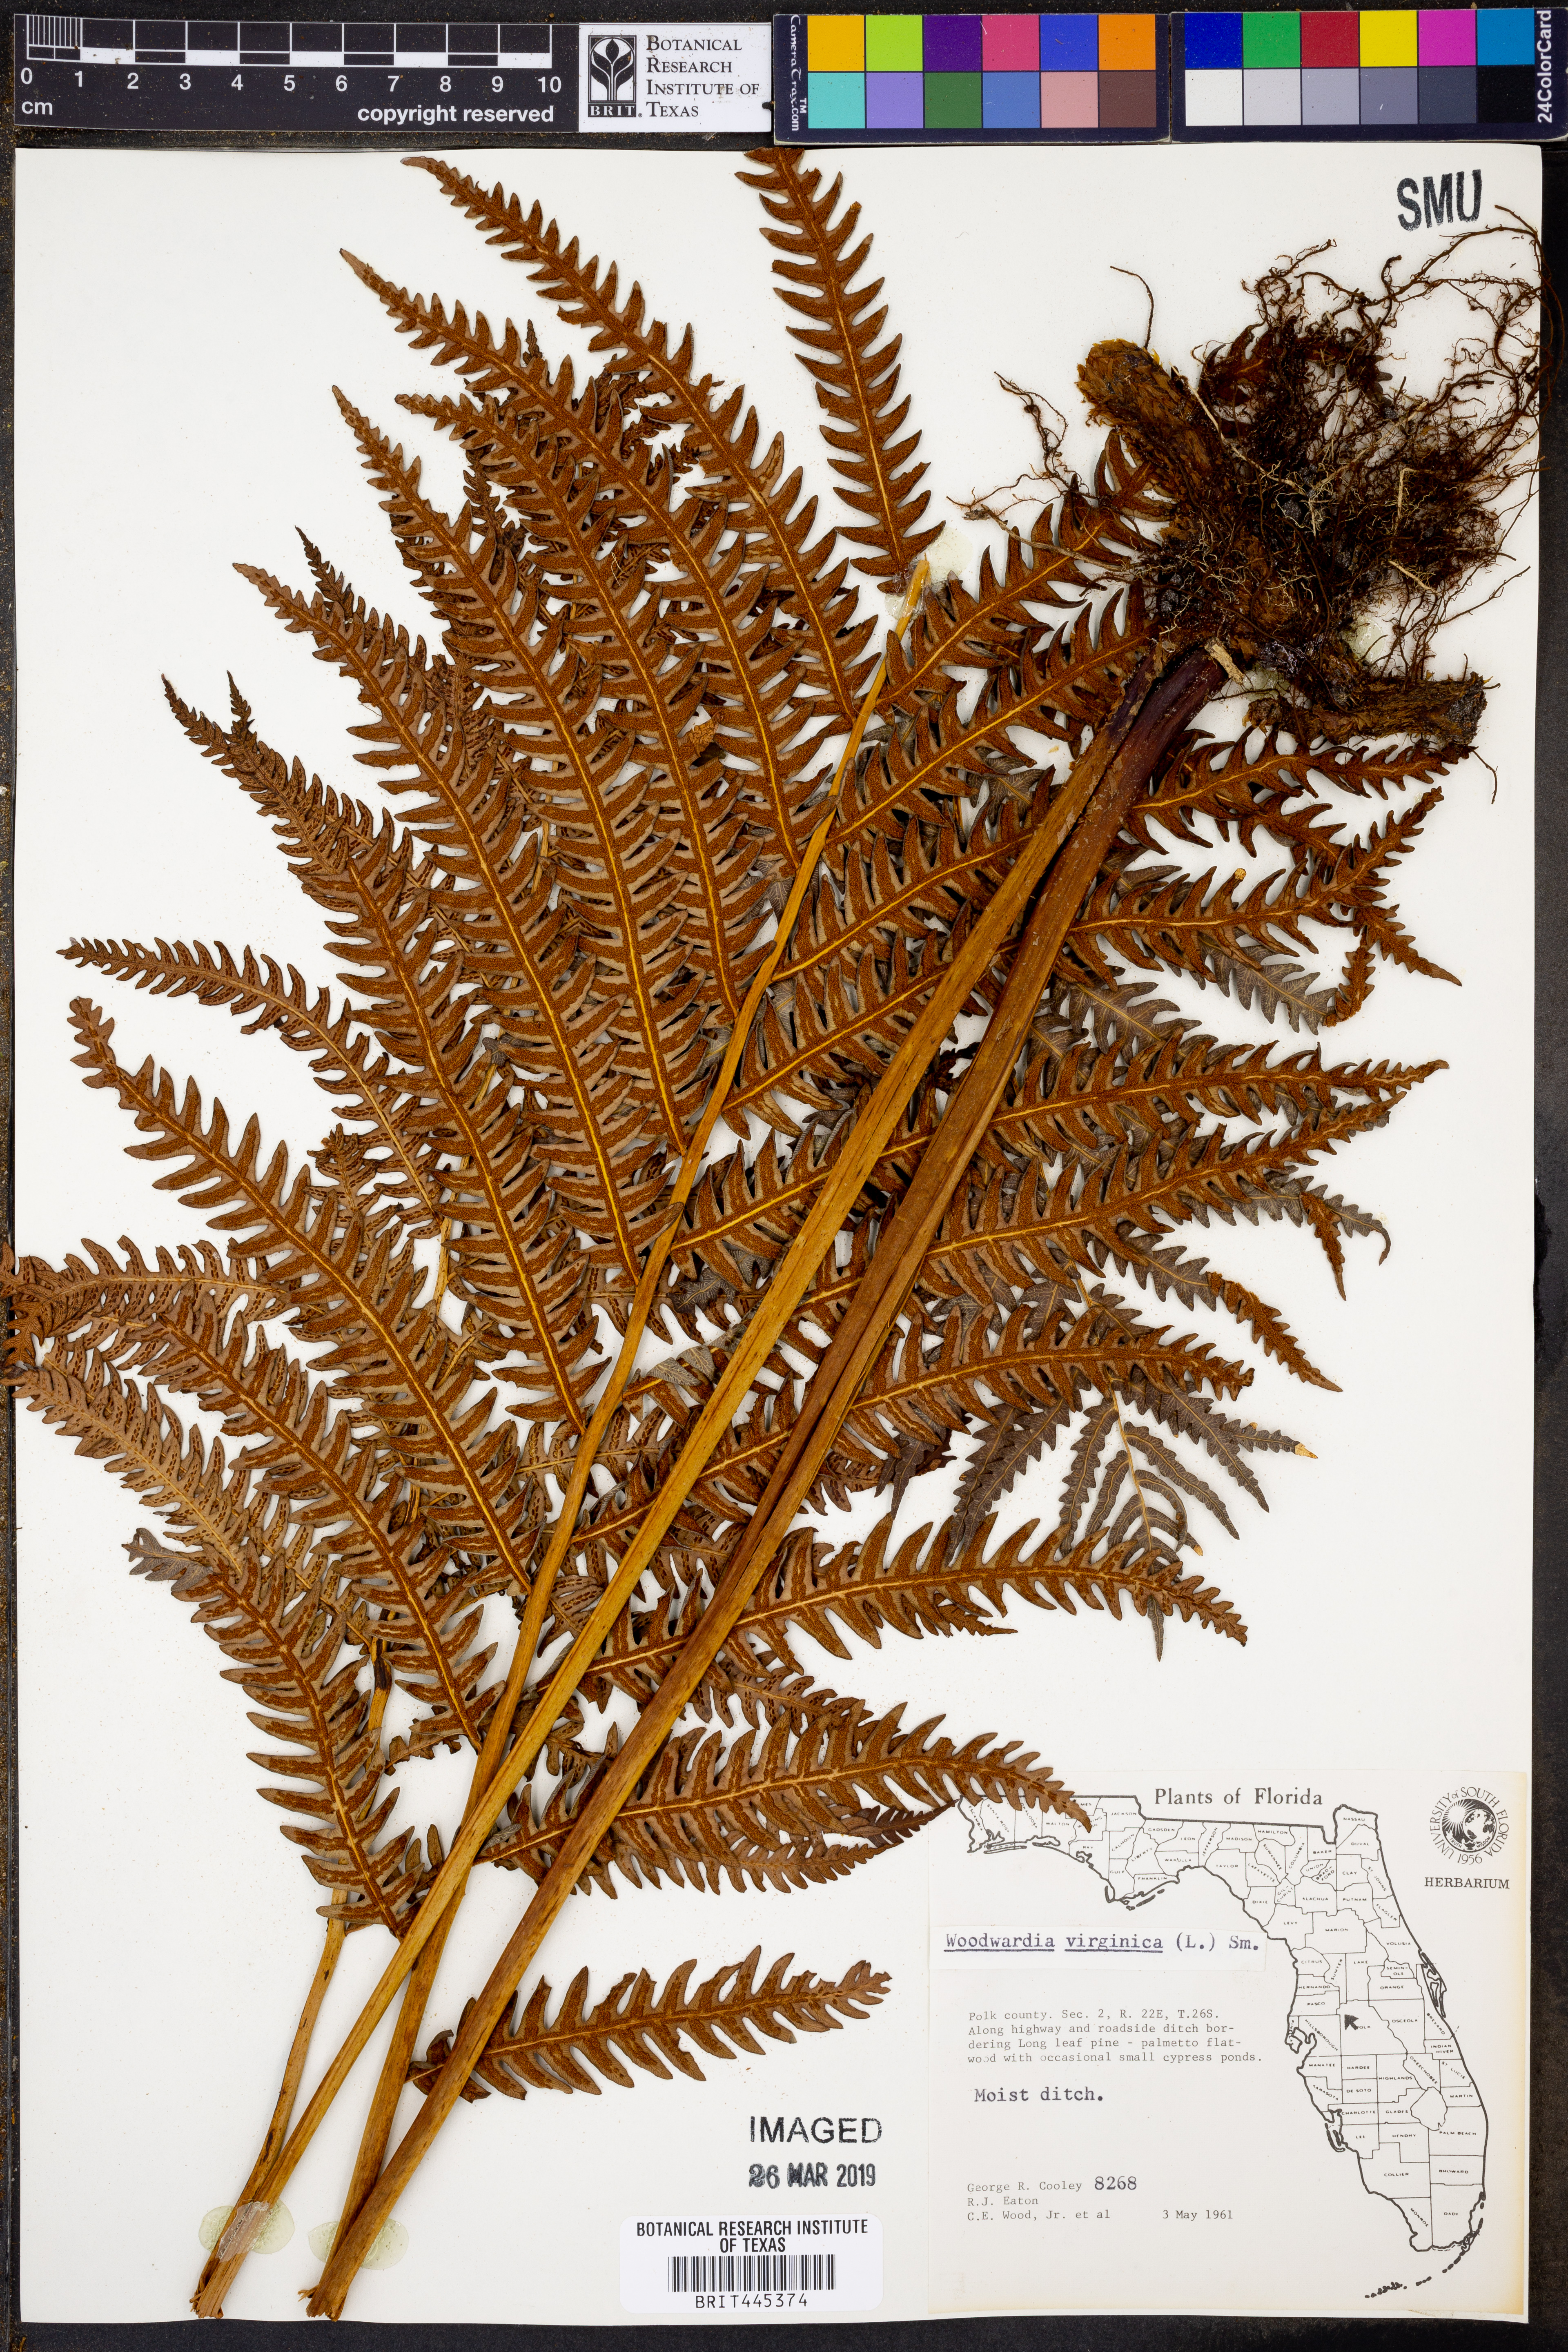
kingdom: Plantae
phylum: Tracheophyta
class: Polypodiopsida
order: Polypodiales
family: Blechnaceae
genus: Anchistea
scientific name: Anchistea virginica
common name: Virginia chain fern
